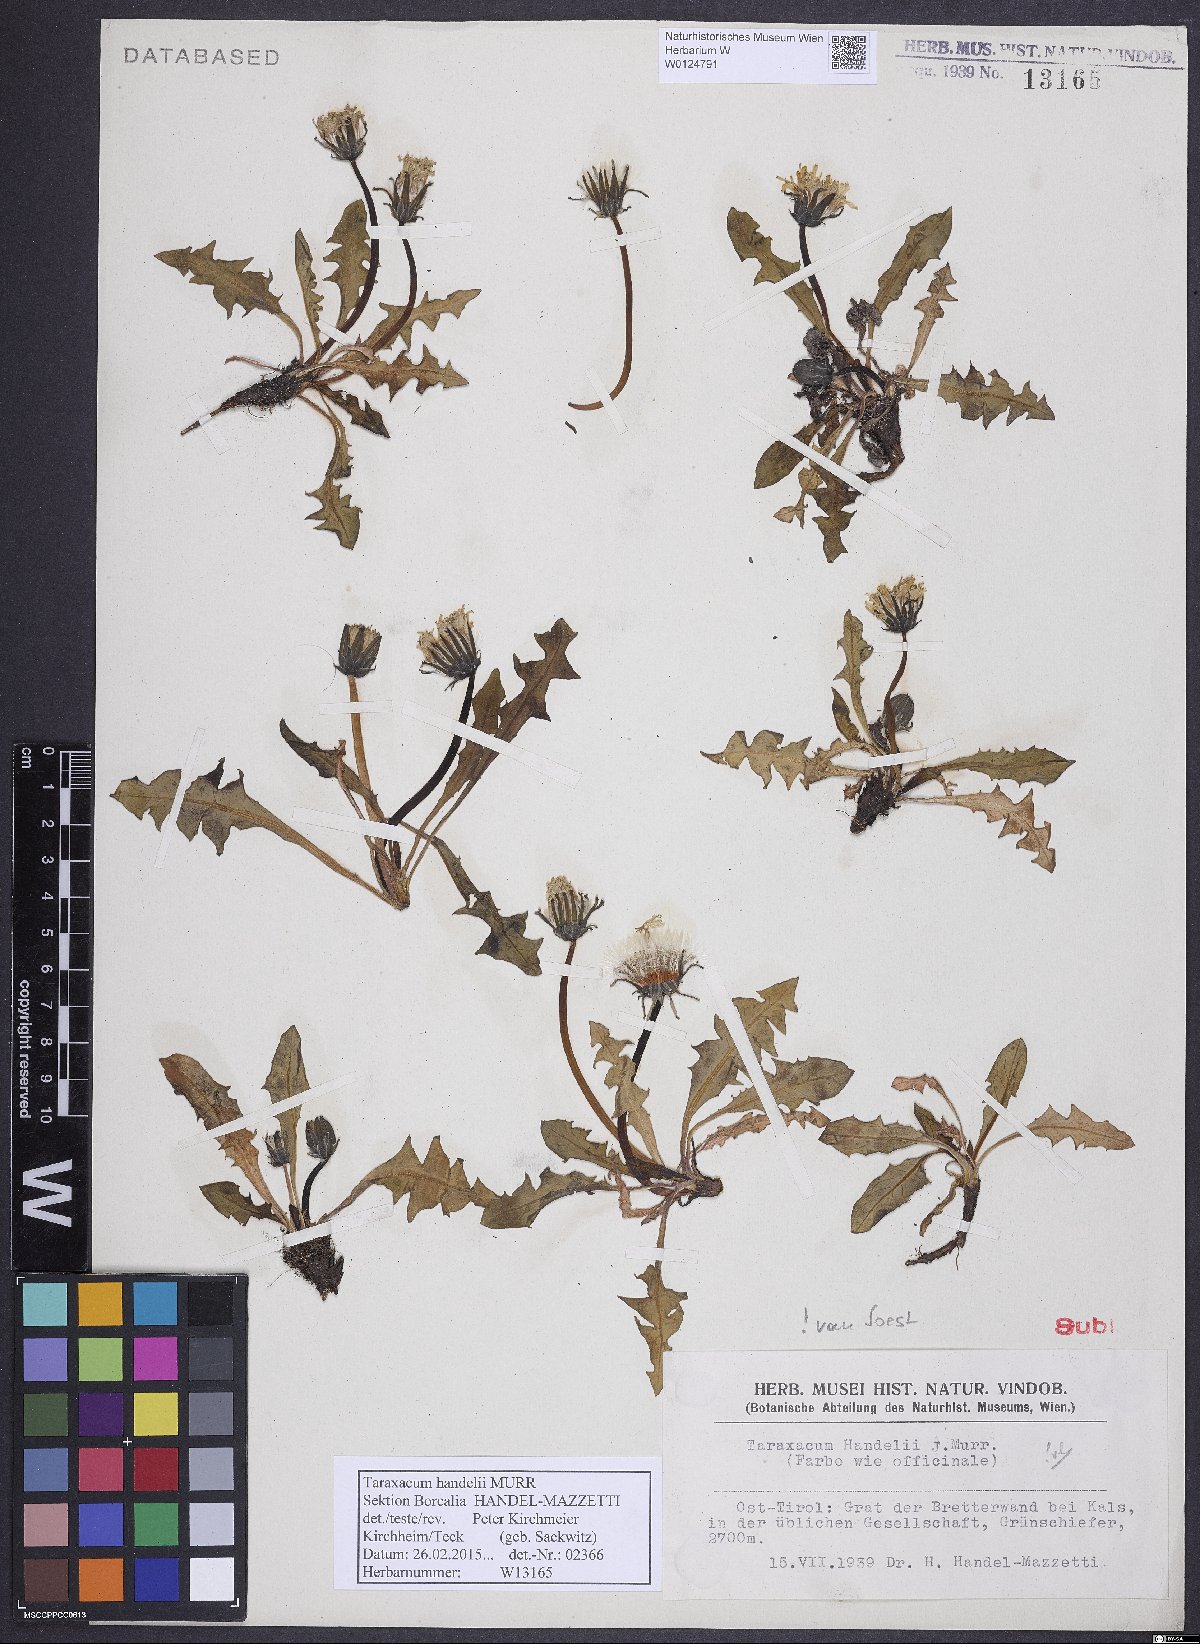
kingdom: Plantae
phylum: Tracheophyta
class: Magnoliopsida
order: Asterales
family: Asteraceae
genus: Taraxacum
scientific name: Taraxacum handelii
